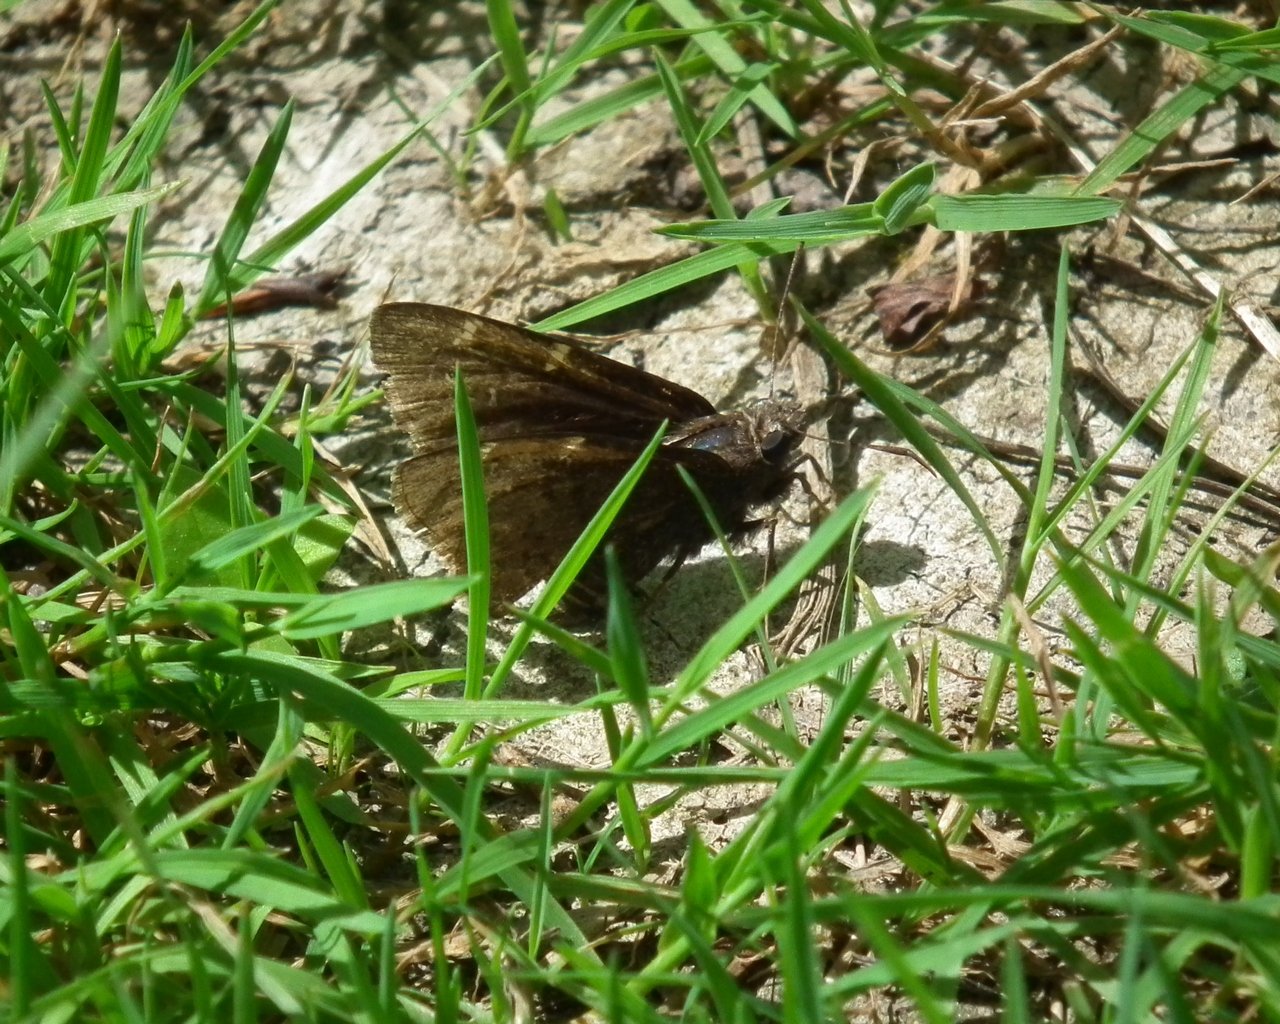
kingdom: Animalia
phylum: Arthropoda
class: Insecta
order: Lepidoptera
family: Hesperiidae
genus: Autochton
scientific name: Autochton
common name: Northern Cloudywing
